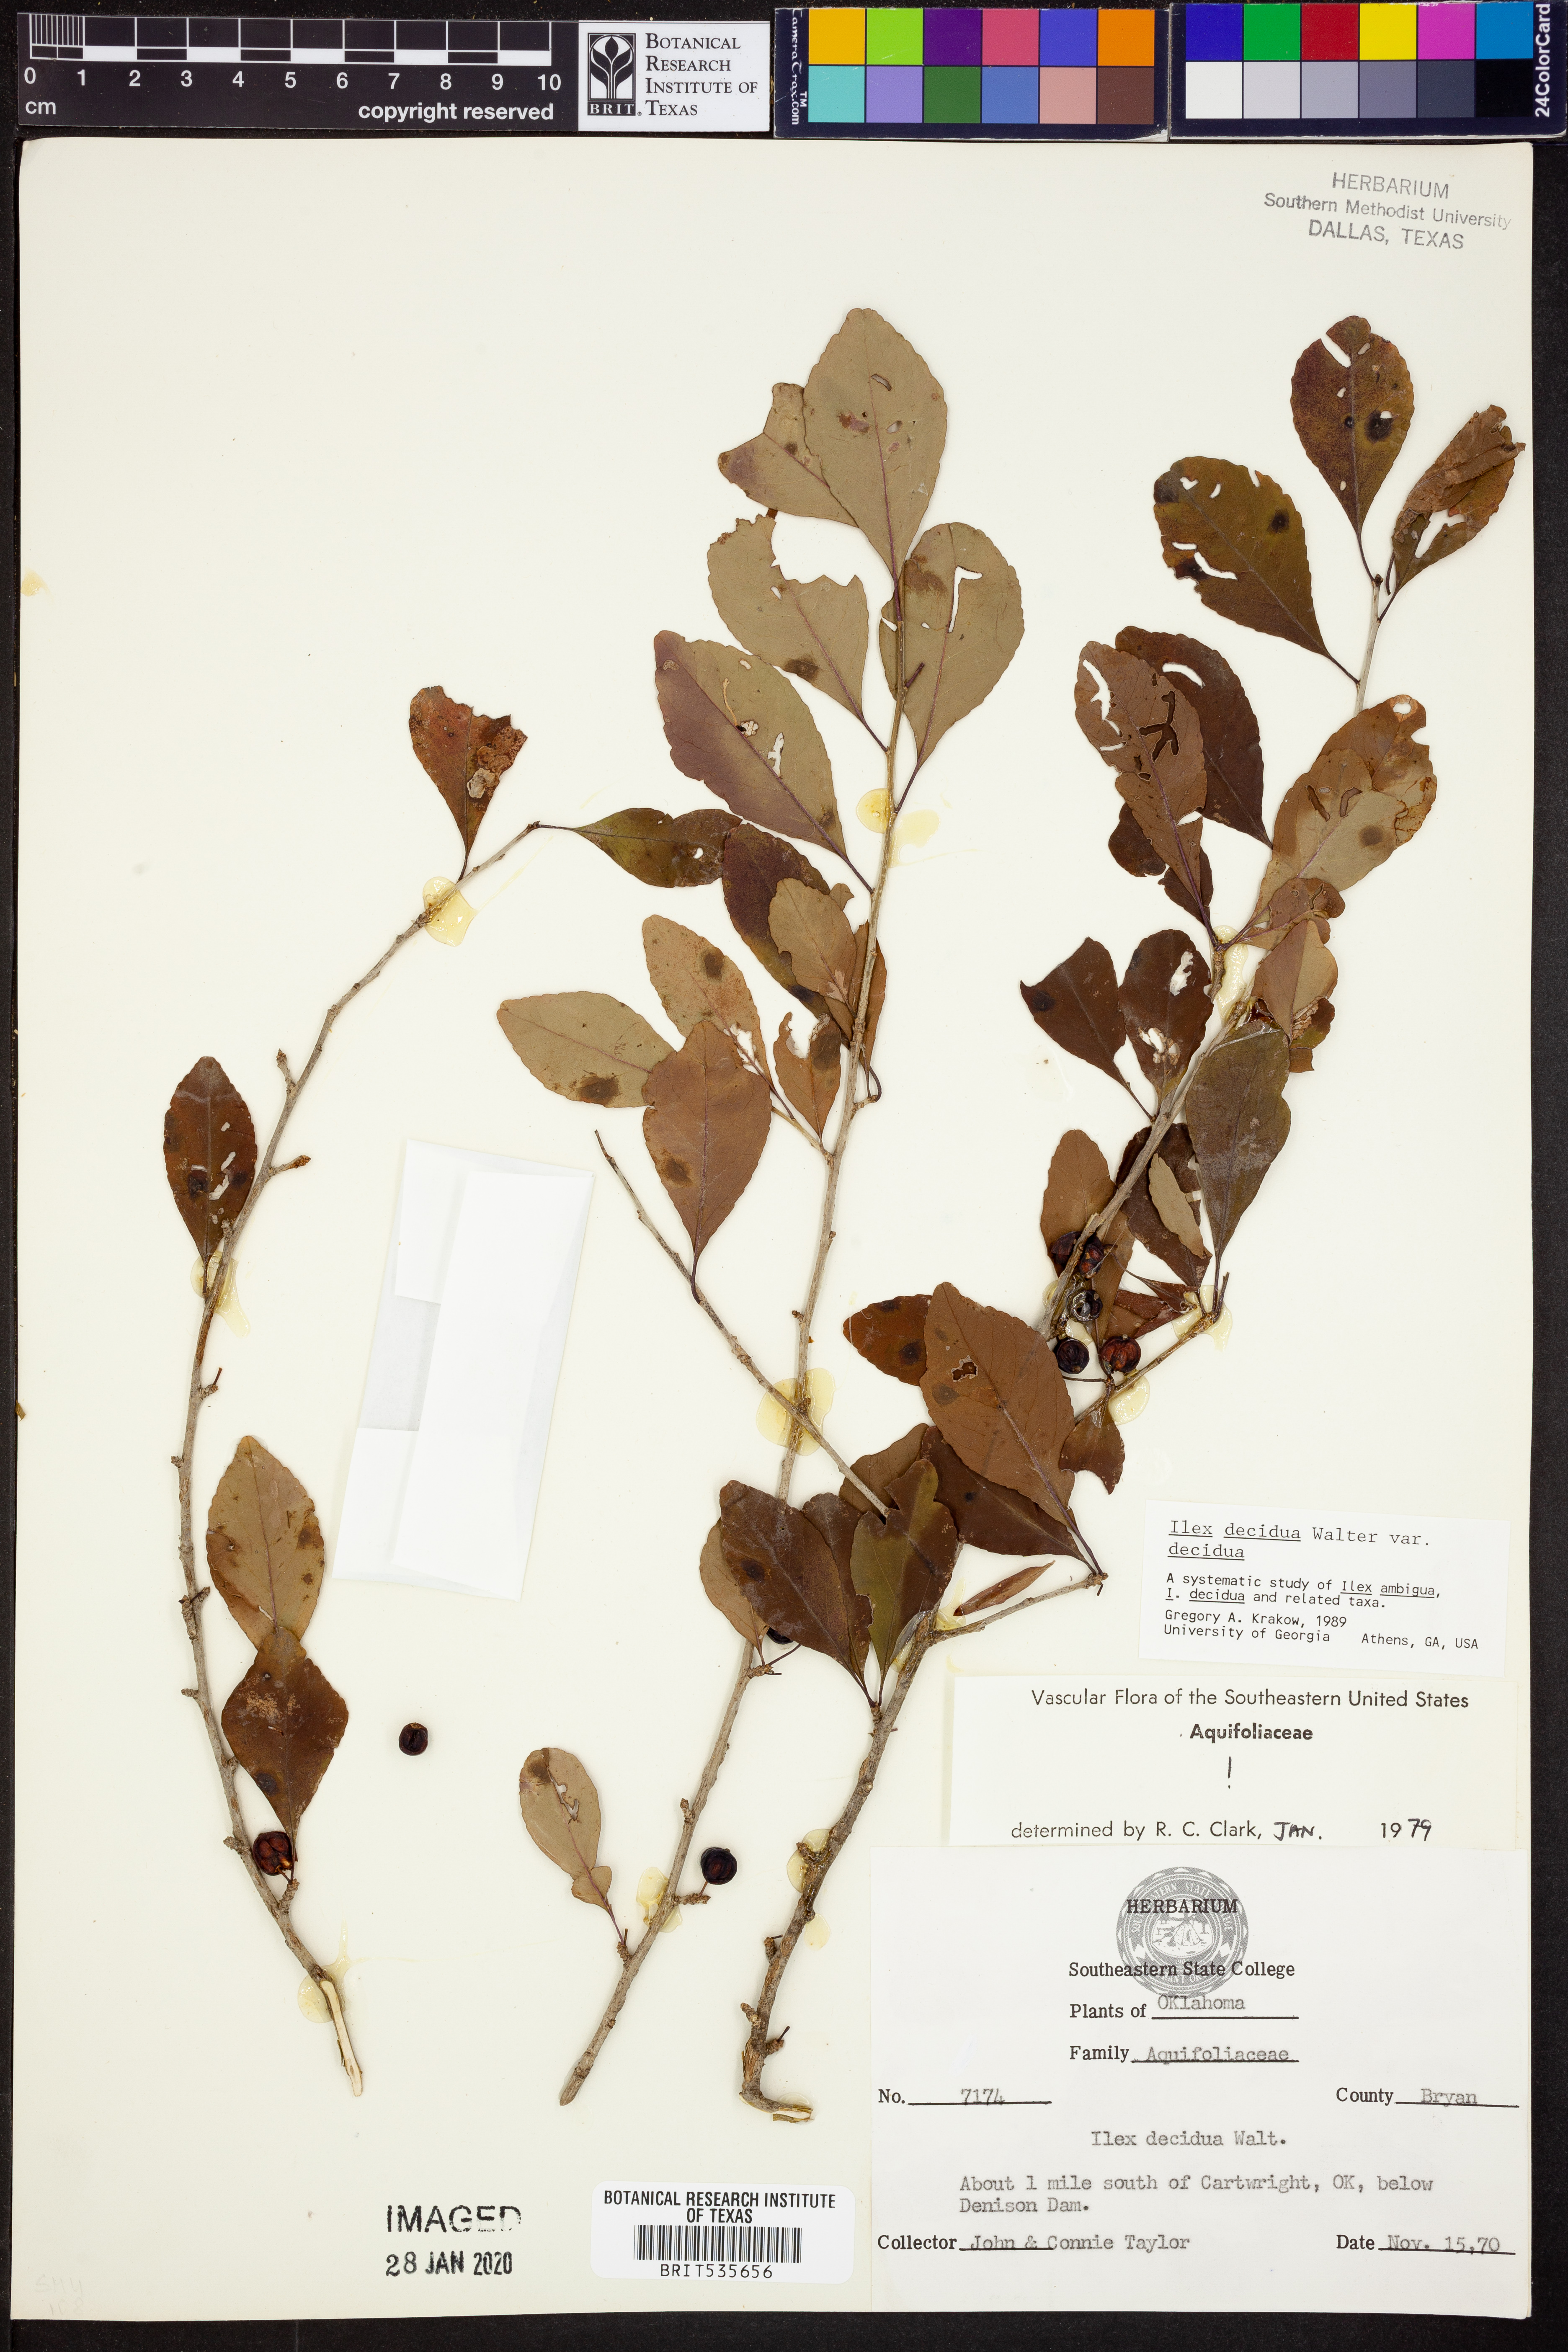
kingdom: Plantae
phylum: Tracheophyta
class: Magnoliopsida
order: Aquifoliales
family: Aquifoliaceae
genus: Ilex
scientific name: Ilex decidua
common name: Possum-haw
